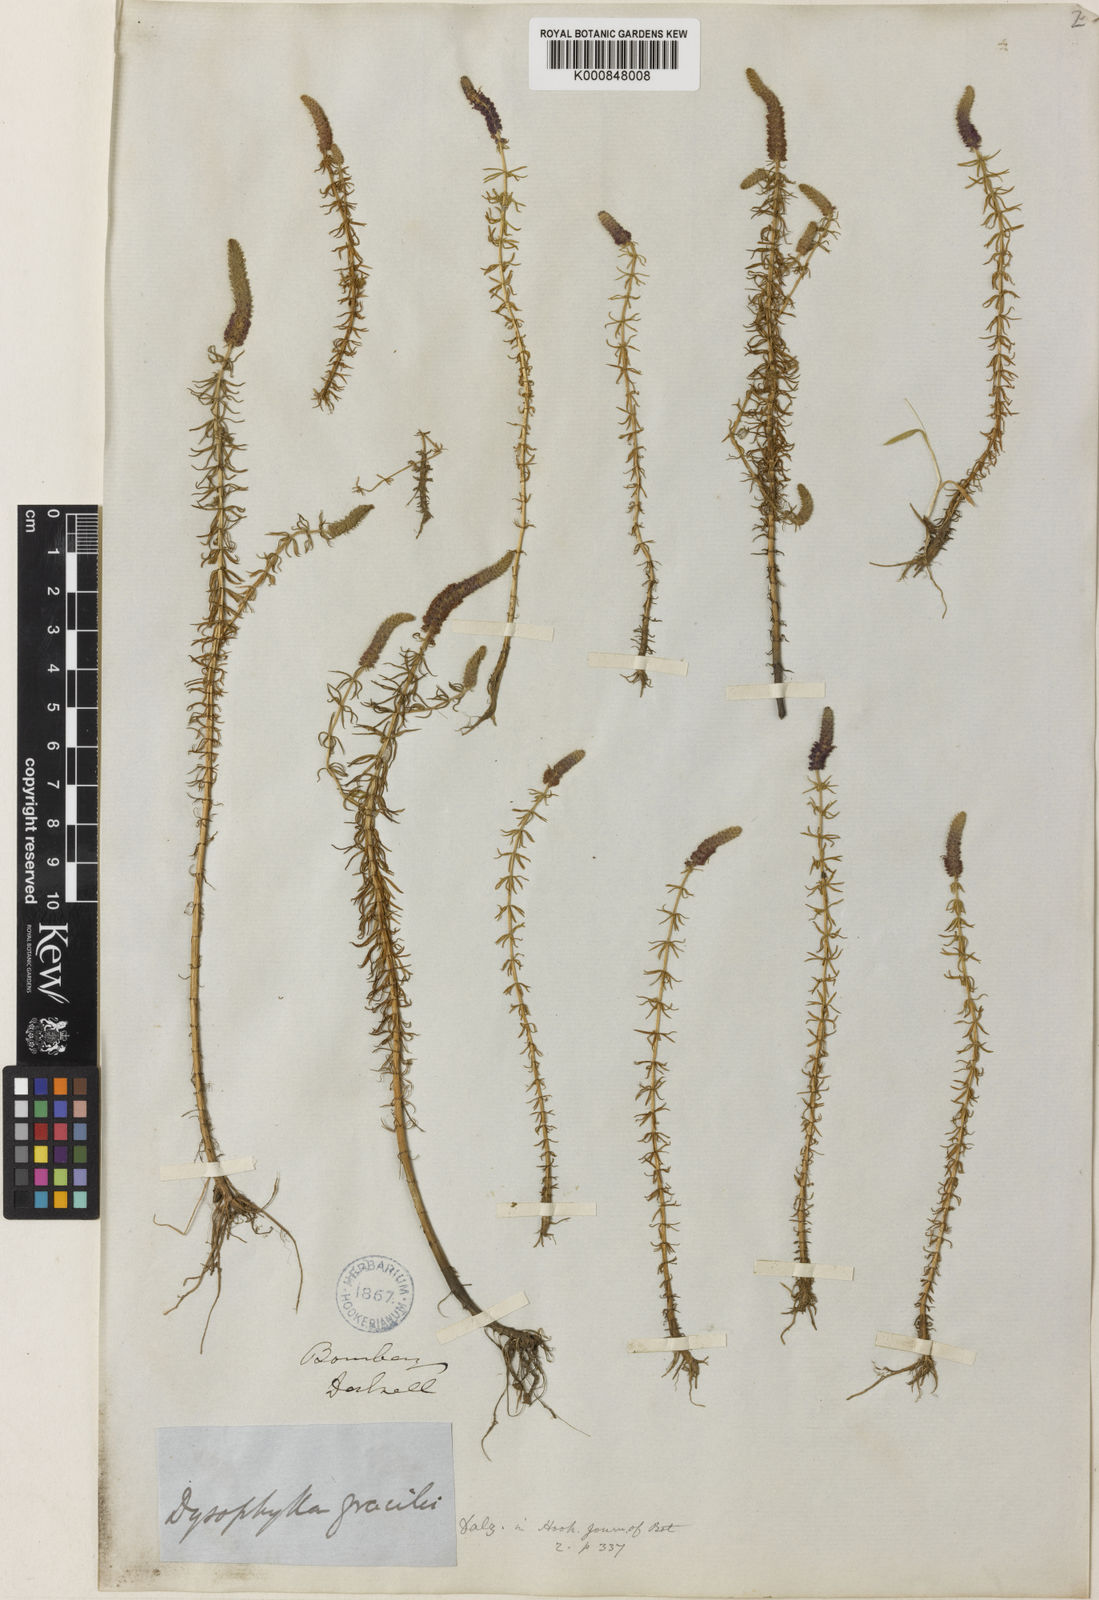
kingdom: Plantae
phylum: Tracheophyta
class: Magnoliopsida
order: Lamiales
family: Lamiaceae
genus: Pogostemon
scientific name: Pogostemon erectus
